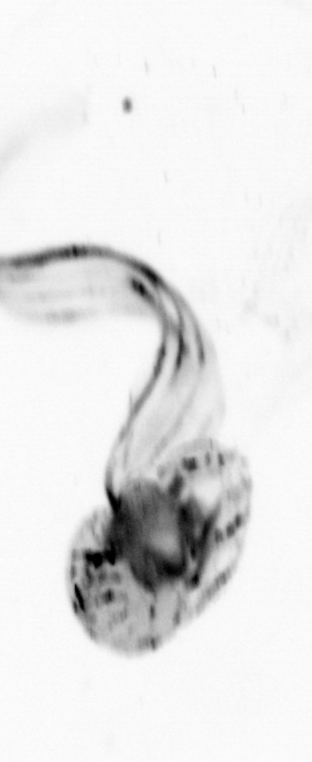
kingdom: Animalia
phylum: Chordata
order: Copelata
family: Fritillariidae
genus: Appendicularia
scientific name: Appendicularia
